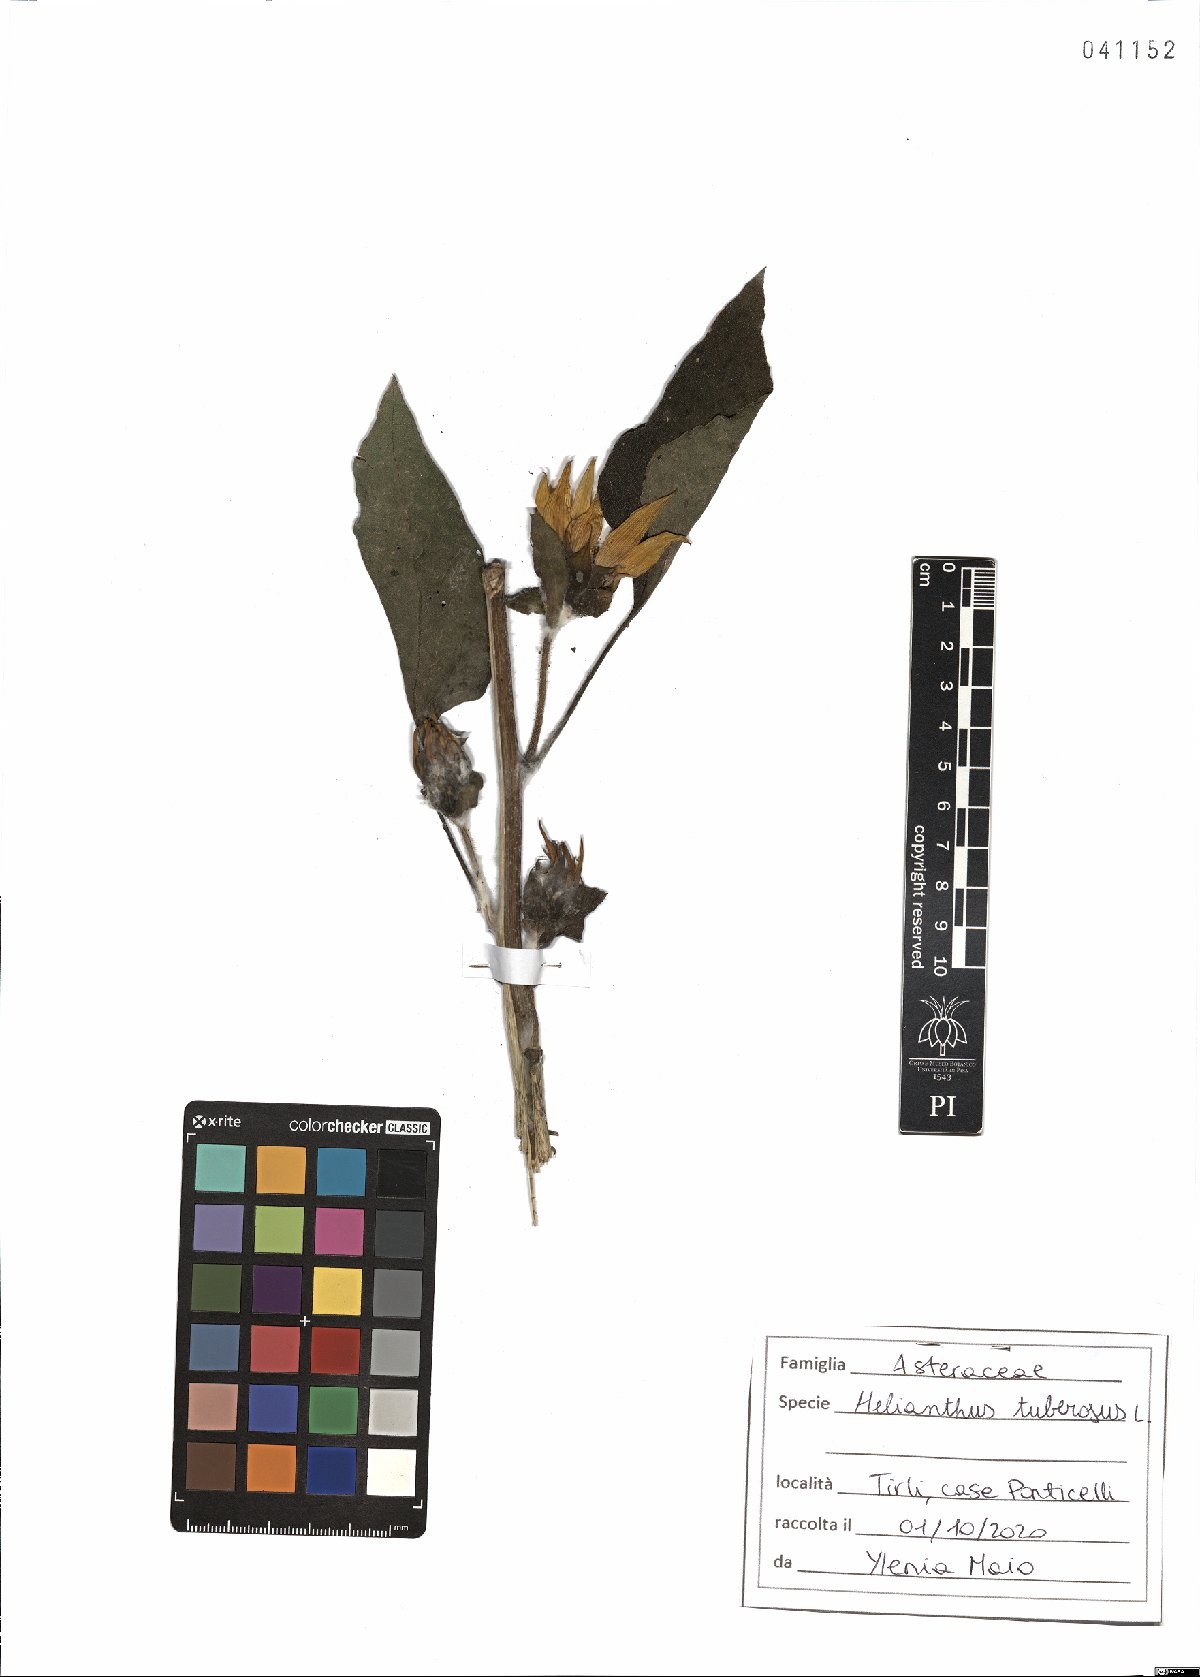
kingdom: Plantae
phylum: Tracheophyta
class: Magnoliopsida
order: Asterales
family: Asteraceae
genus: Helianthus
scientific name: Helianthus tuberosus
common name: Jerusalem artichoke
